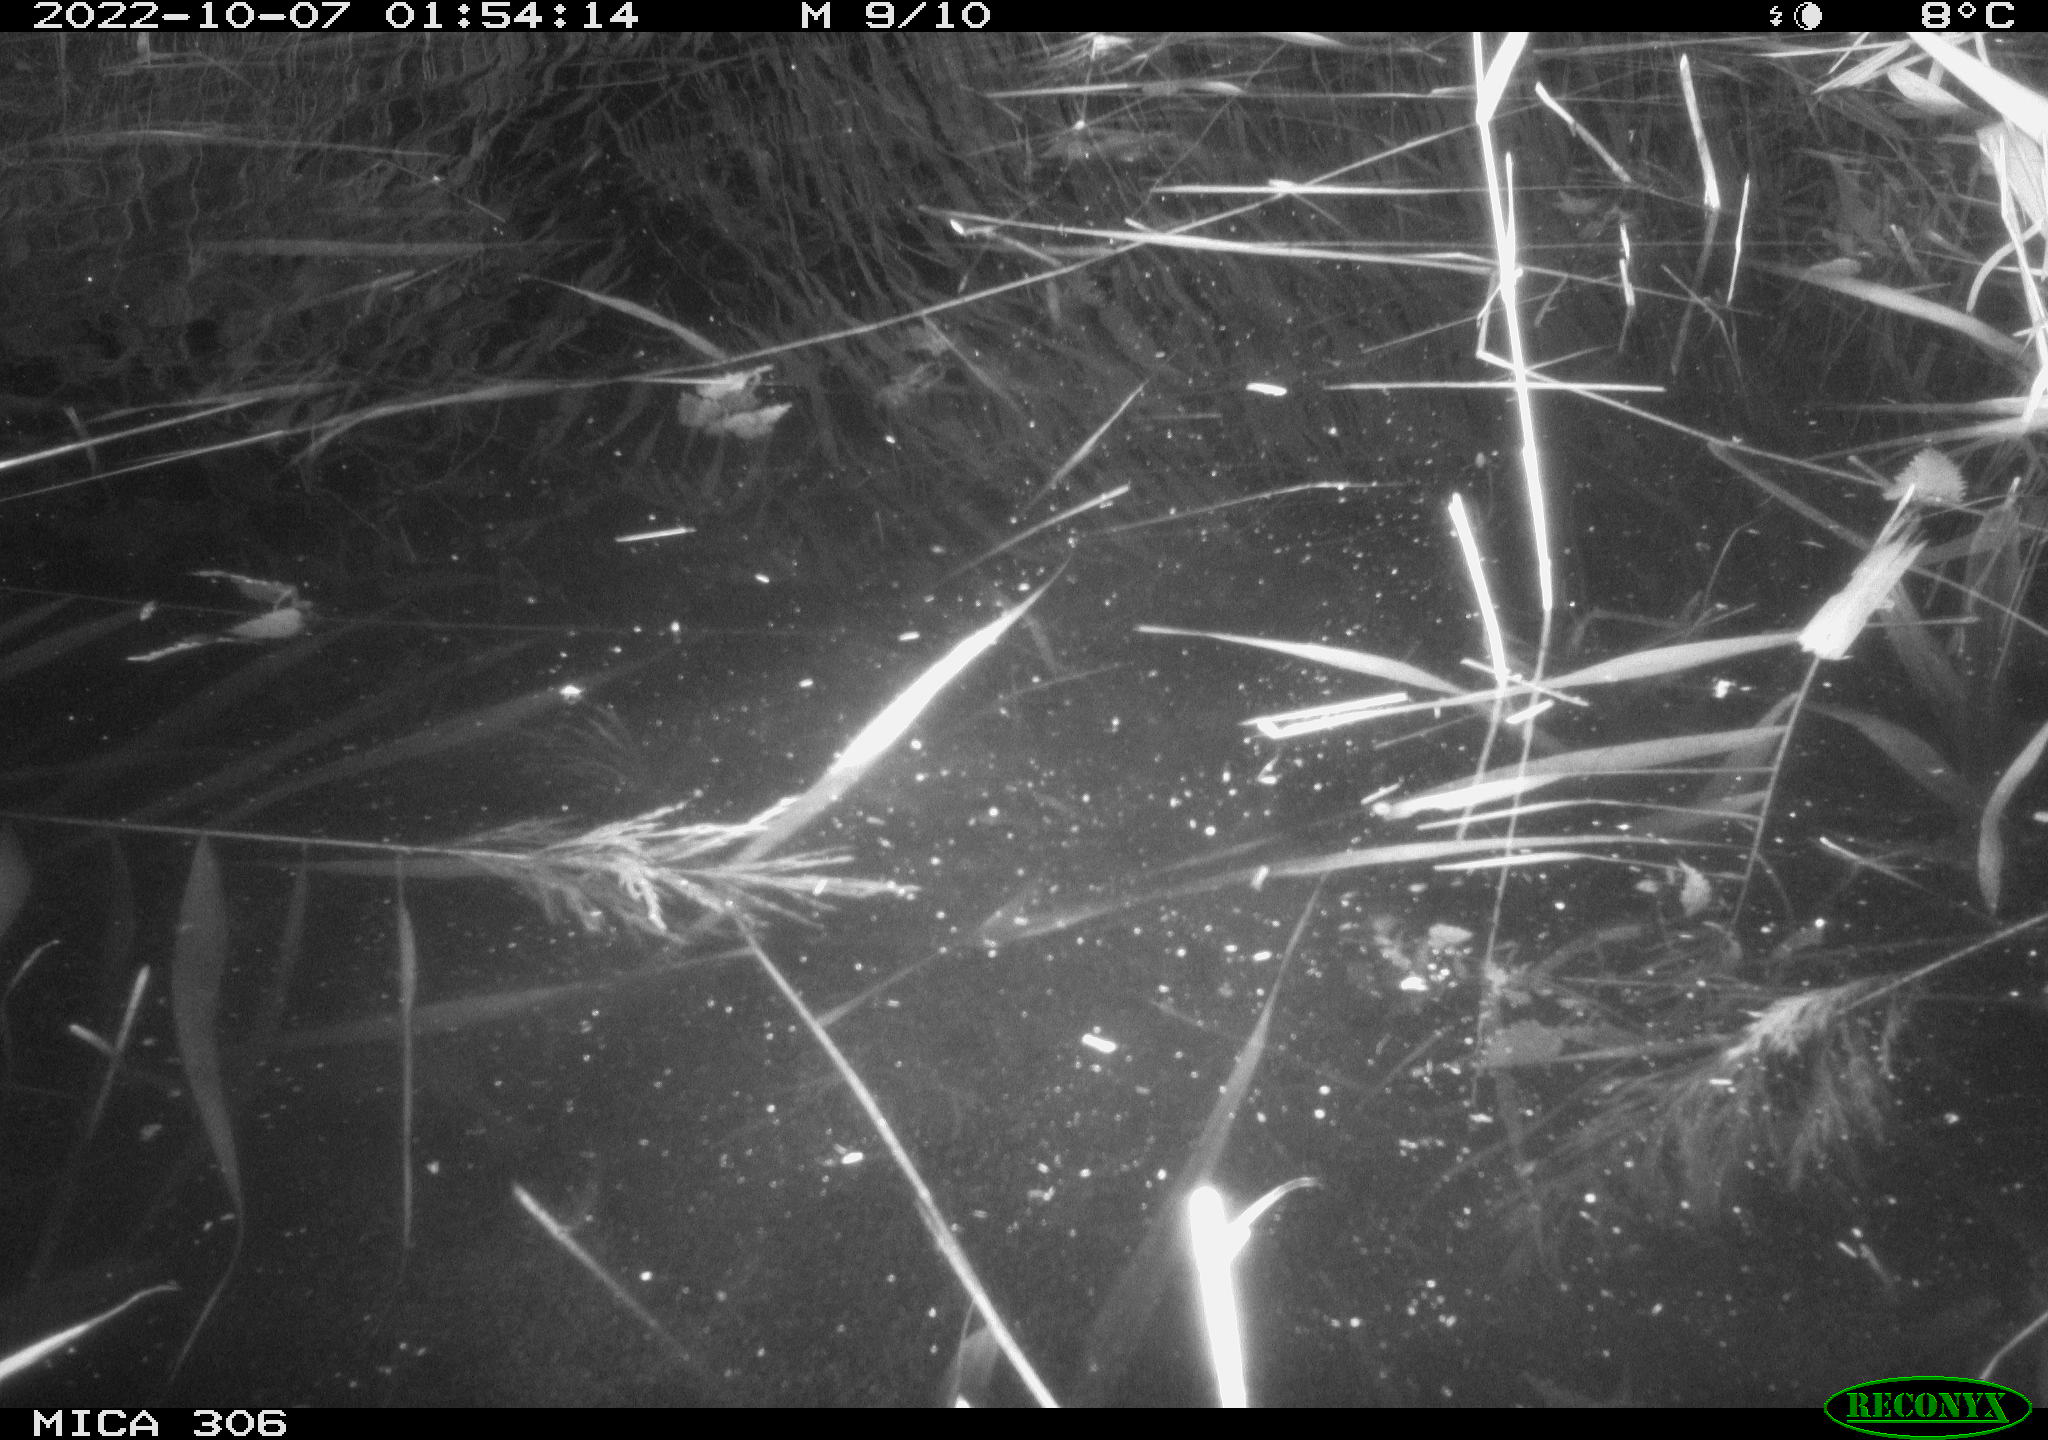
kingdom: Animalia
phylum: Chordata
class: Mammalia
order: Rodentia
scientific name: Rodentia
